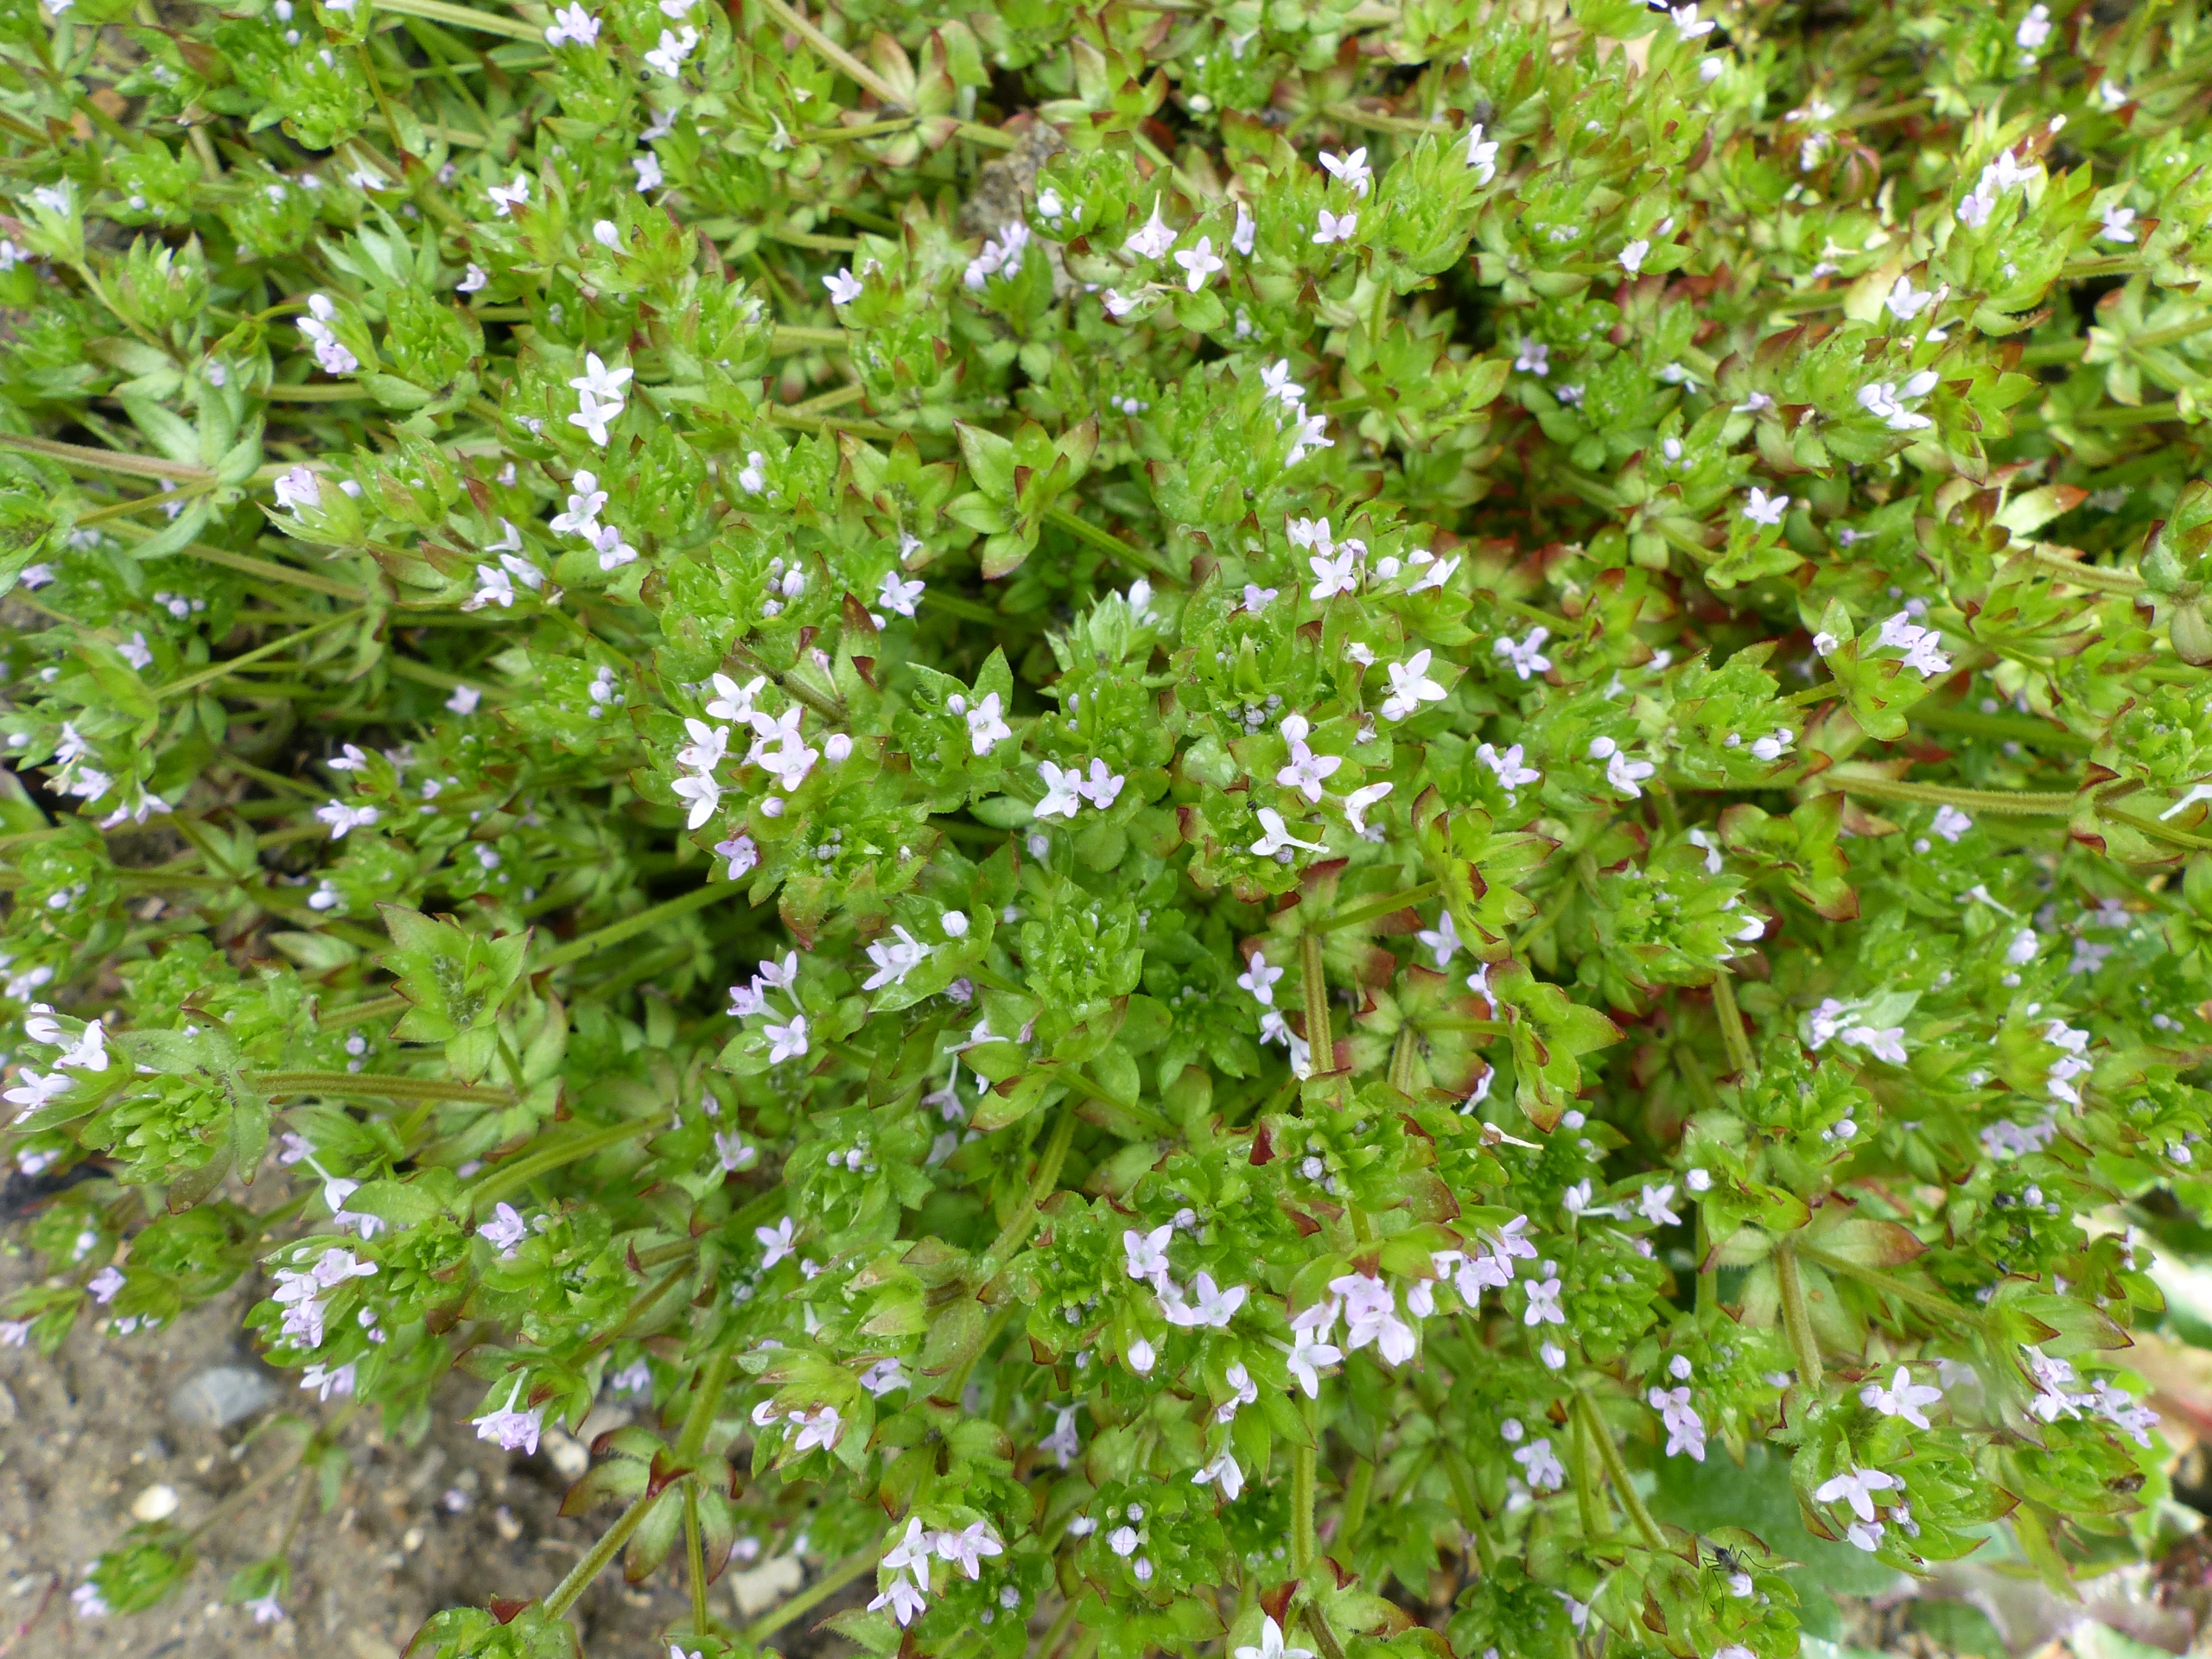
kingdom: Plantae
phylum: Tracheophyta
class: Magnoliopsida
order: Gentianales
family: Rubiaceae
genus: Sherardia
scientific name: Sherardia arvensis
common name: Blåstjerne
